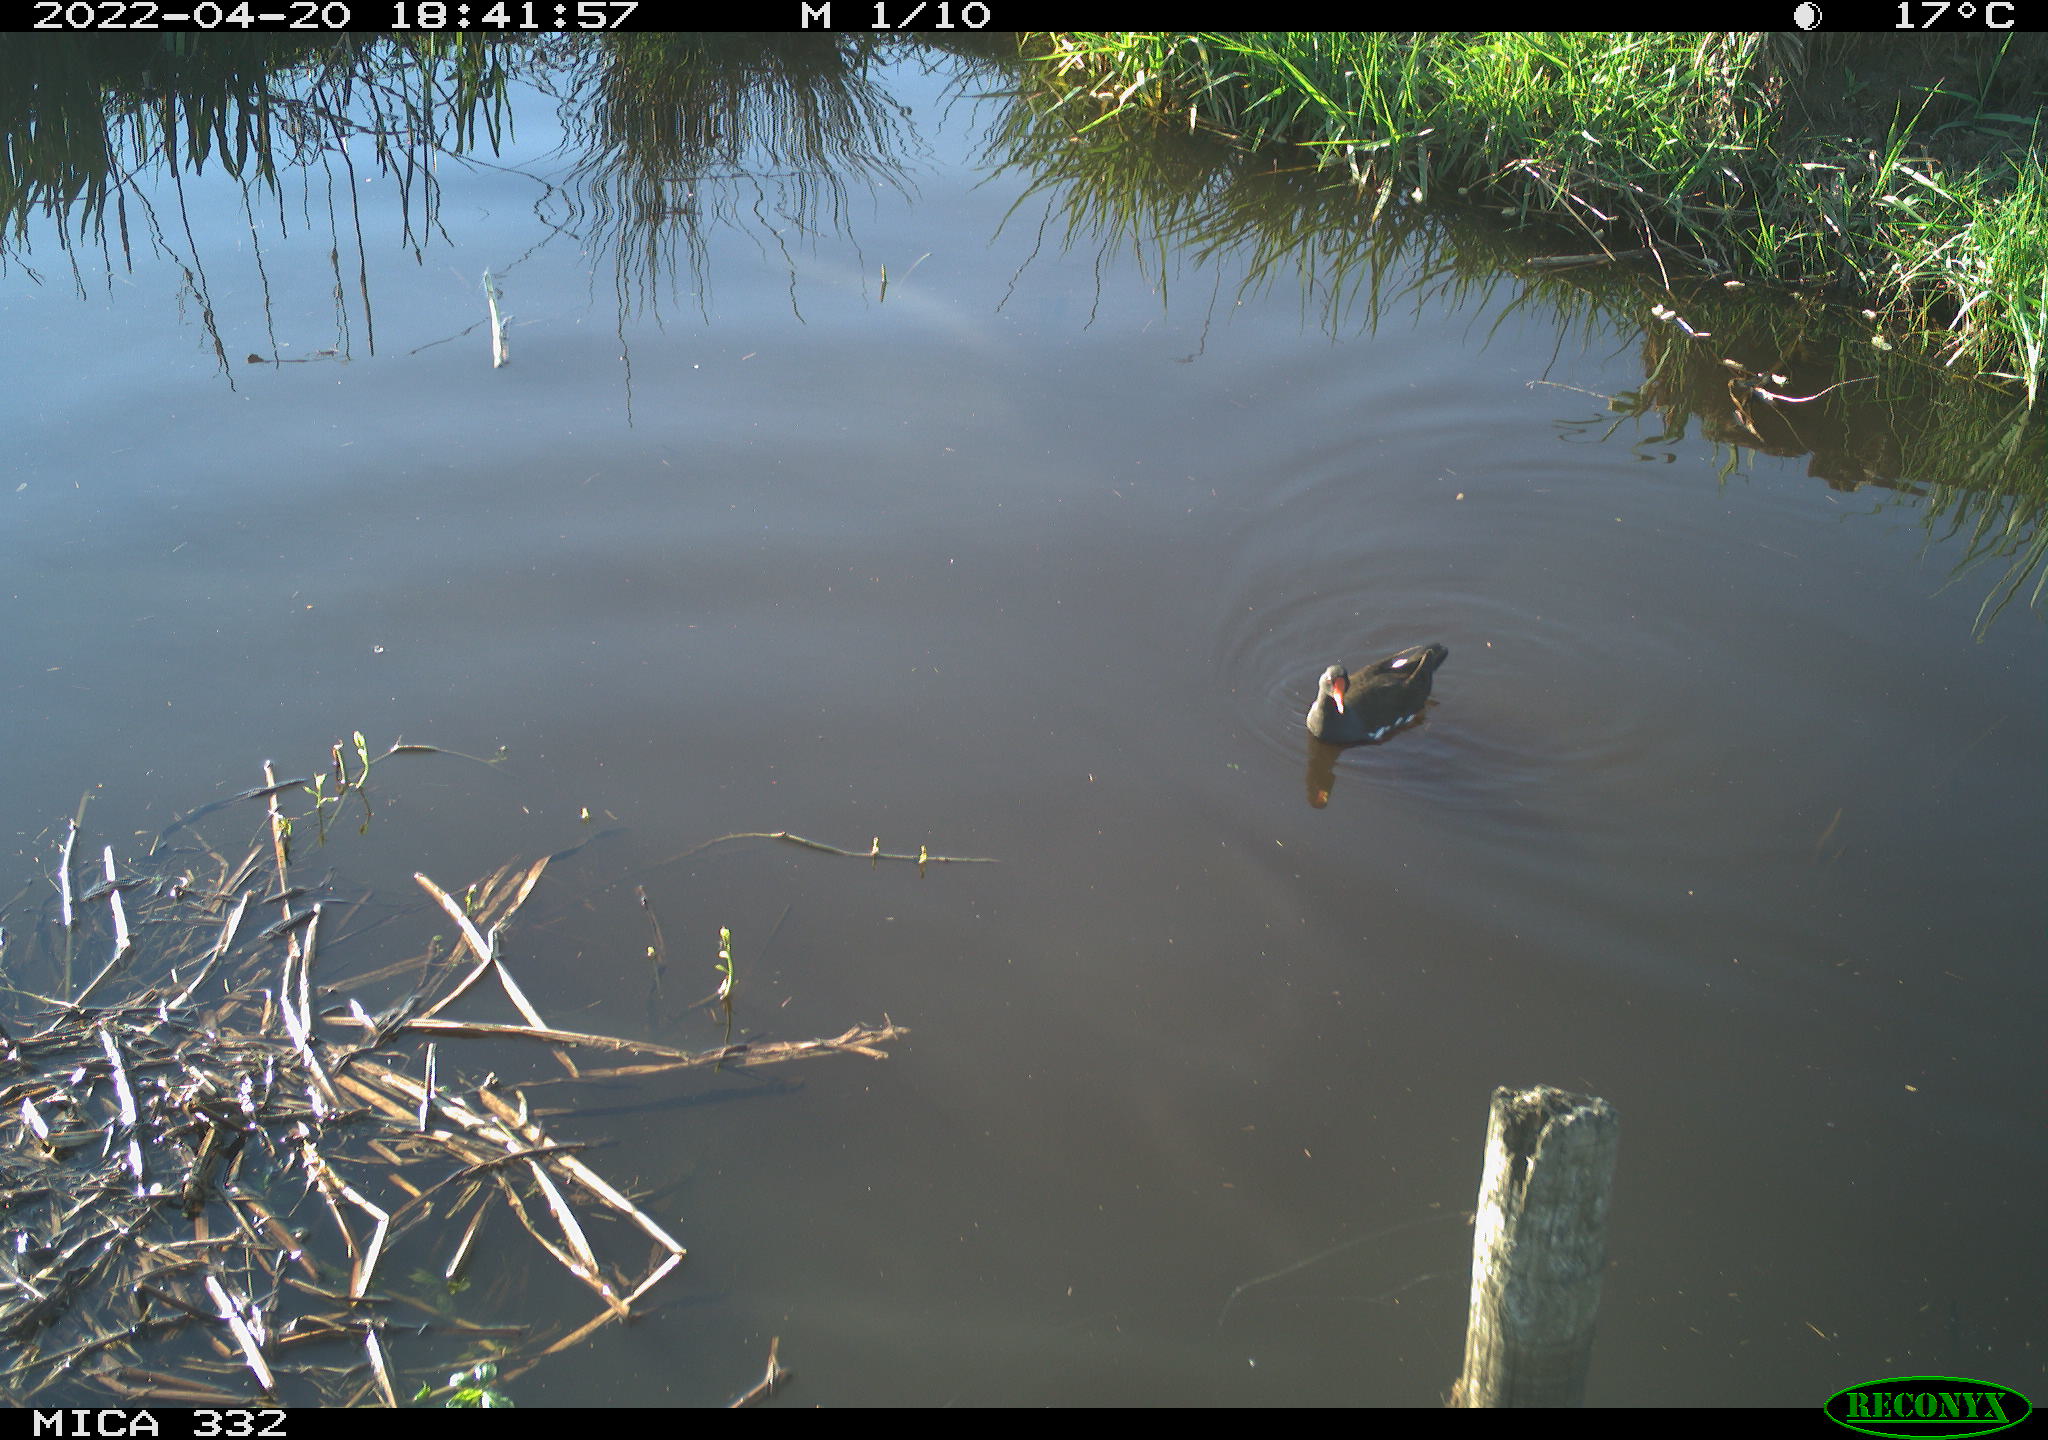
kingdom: Animalia
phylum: Chordata
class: Aves
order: Gruiformes
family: Rallidae
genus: Gallinula
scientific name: Gallinula chloropus
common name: Common moorhen
